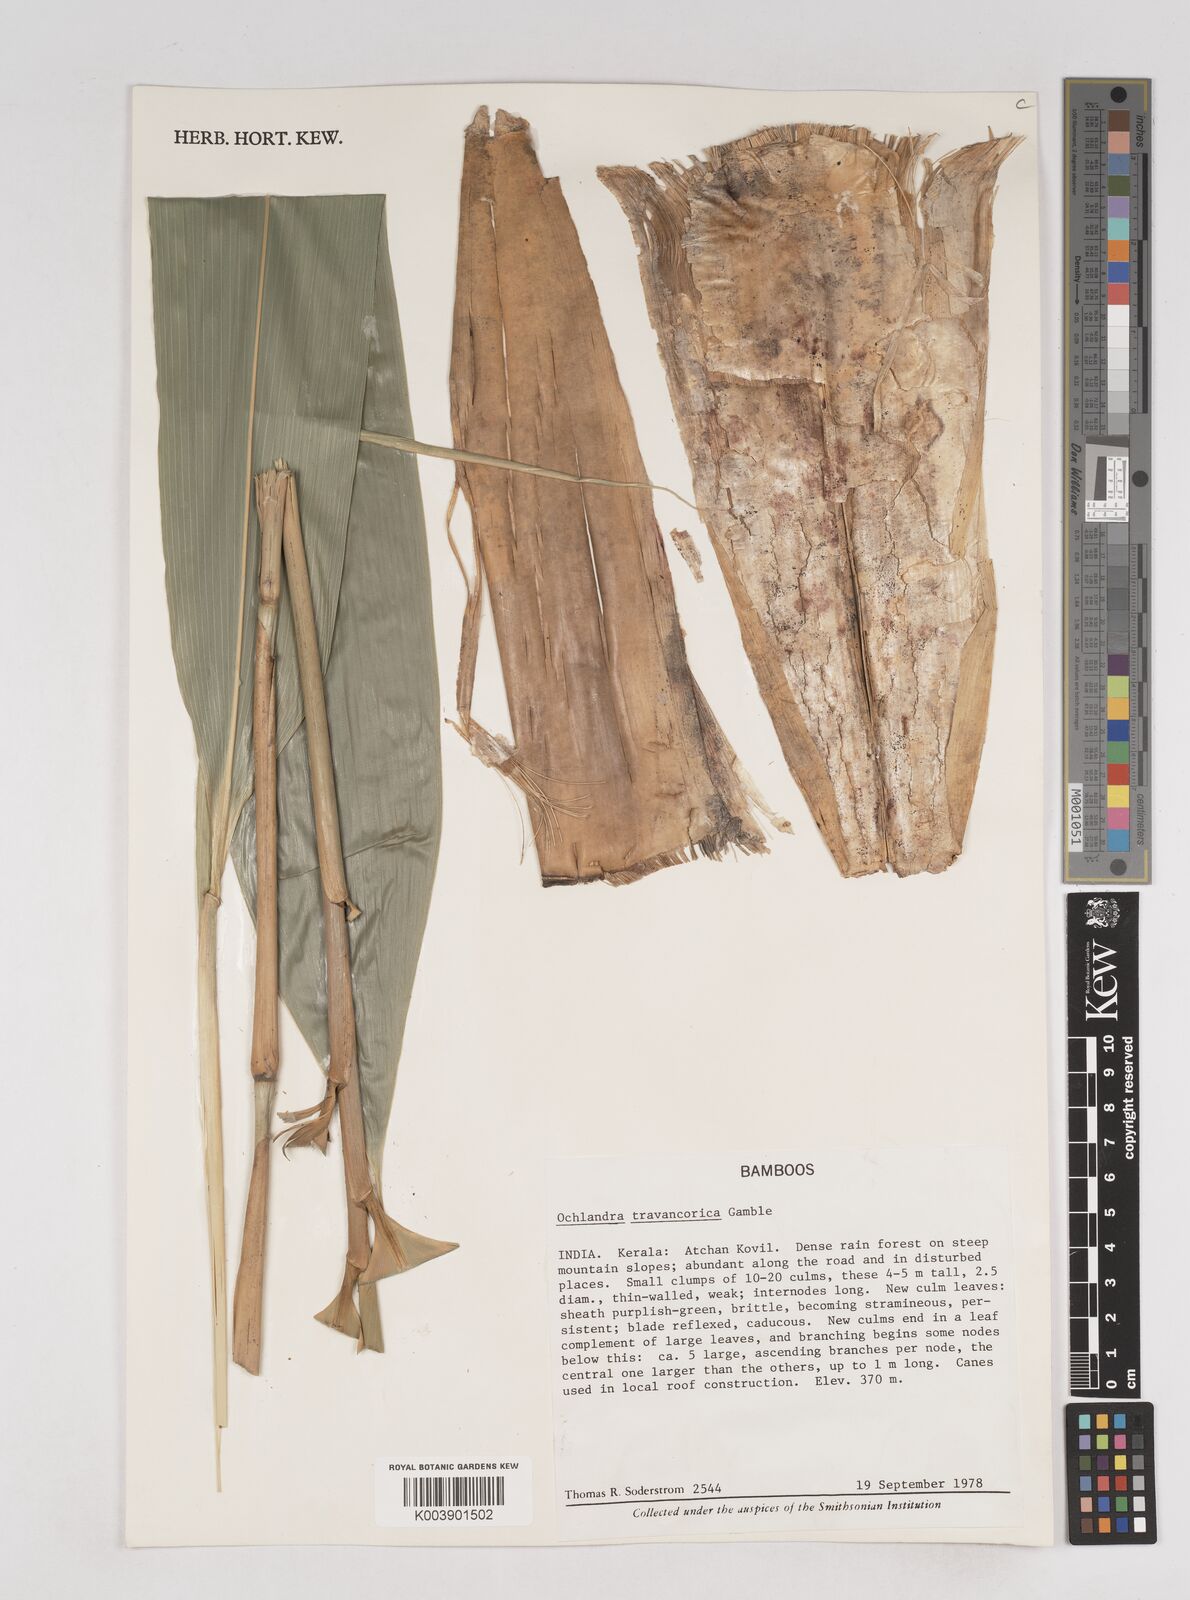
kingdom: Plantae
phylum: Tracheophyta
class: Liliopsida
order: Poales
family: Poaceae
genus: Ochlandra
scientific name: Ochlandra travancorica
